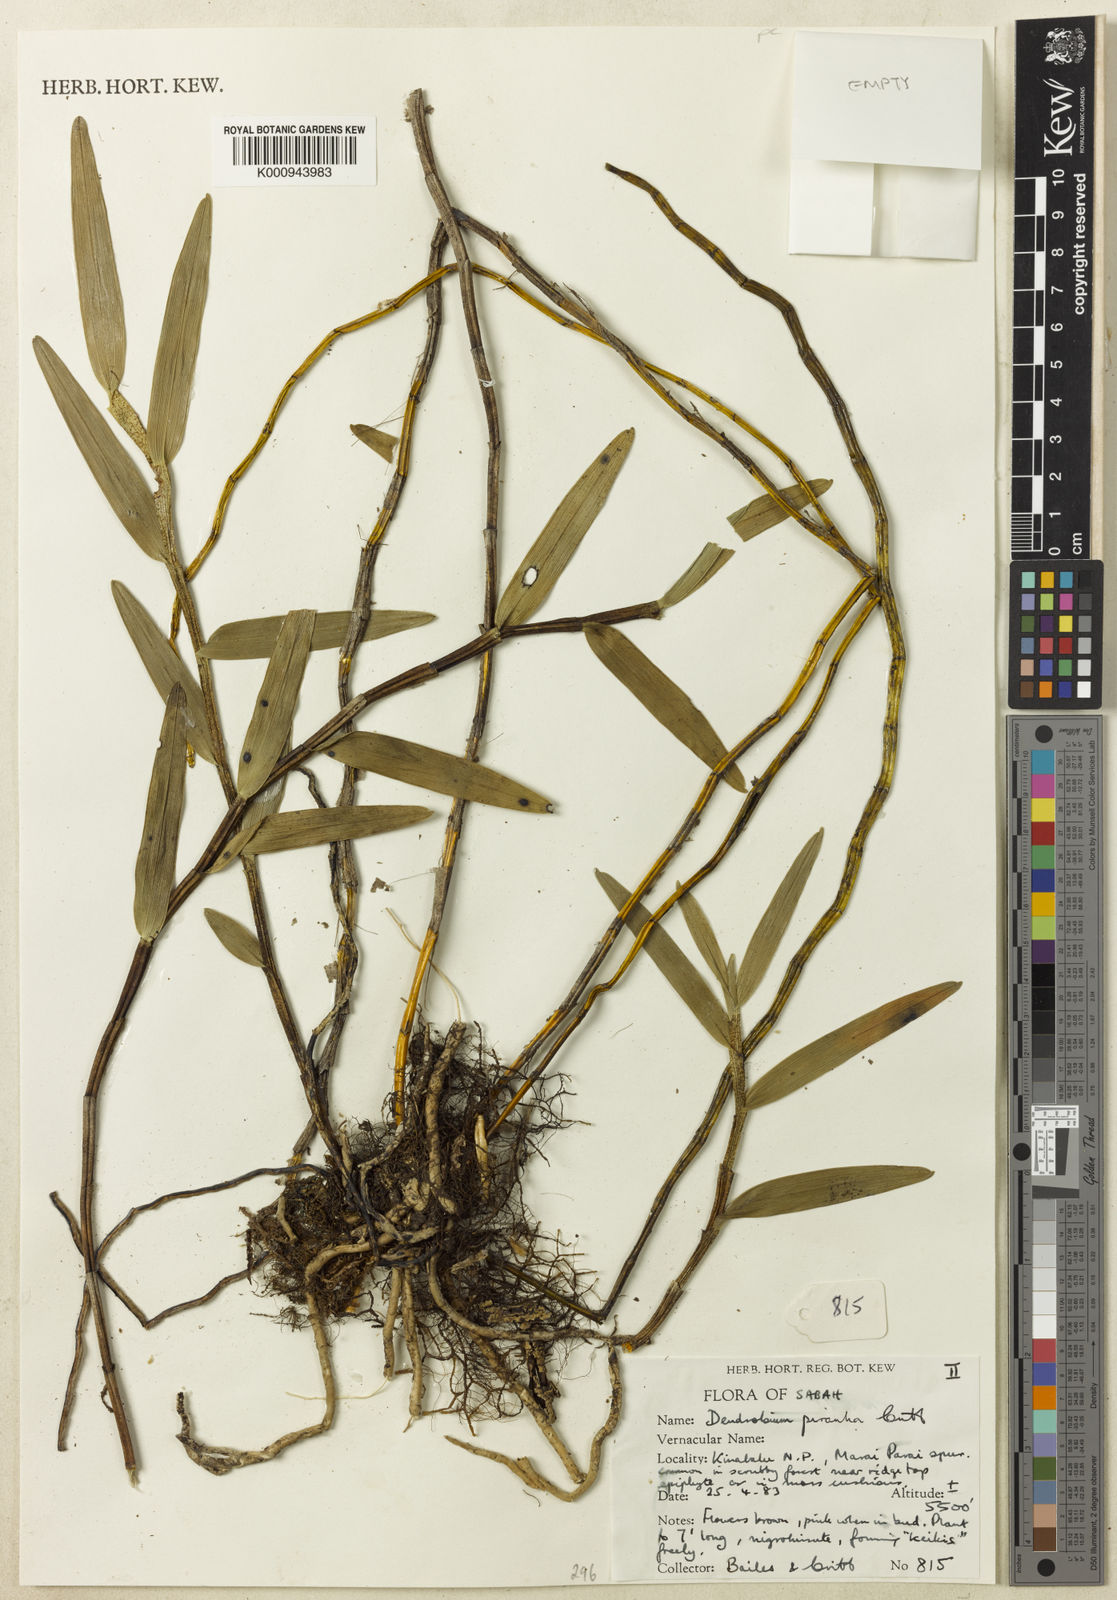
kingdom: Plantae
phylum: Tracheophyta
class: Liliopsida
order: Asparagales
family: Orchidaceae
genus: Dendrobium
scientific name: Dendrobium piranha
